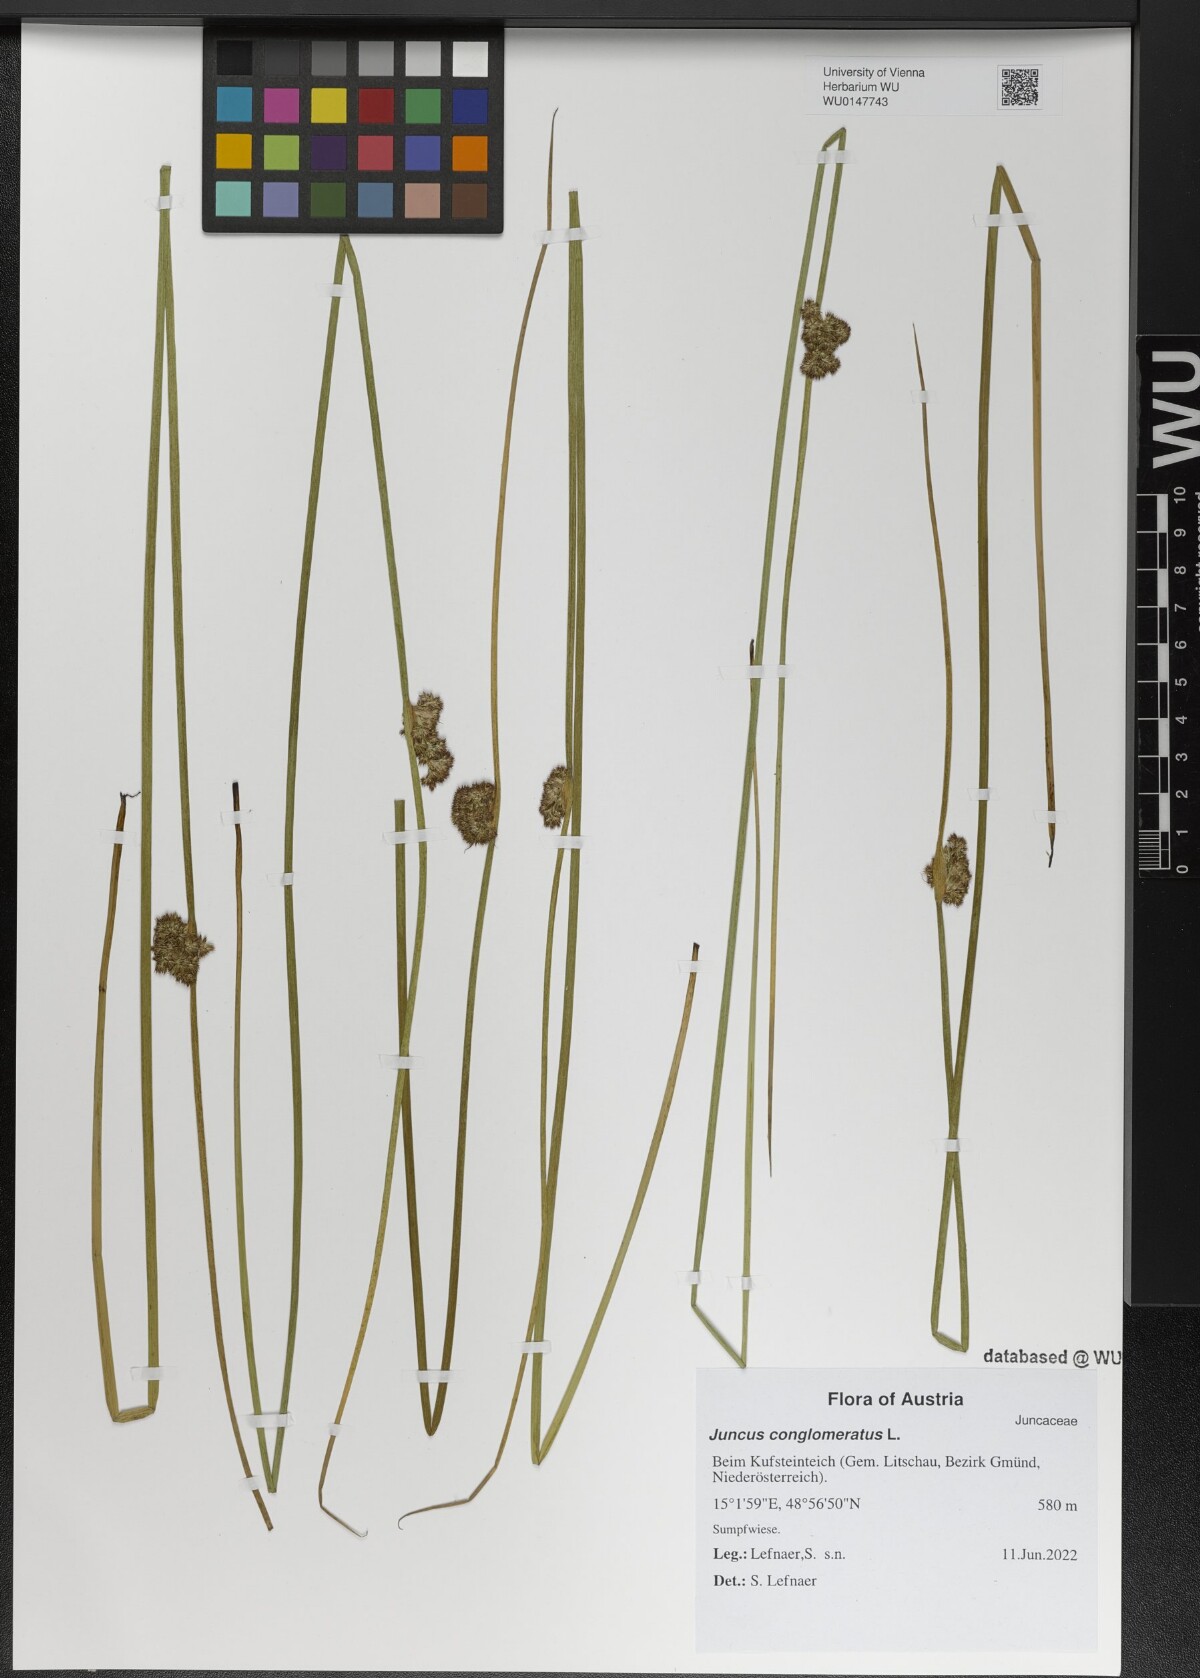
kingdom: Plantae
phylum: Tracheophyta
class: Liliopsida
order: Poales
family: Juncaceae
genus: Juncus
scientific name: Juncus conglomeratus
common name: Compact rush
